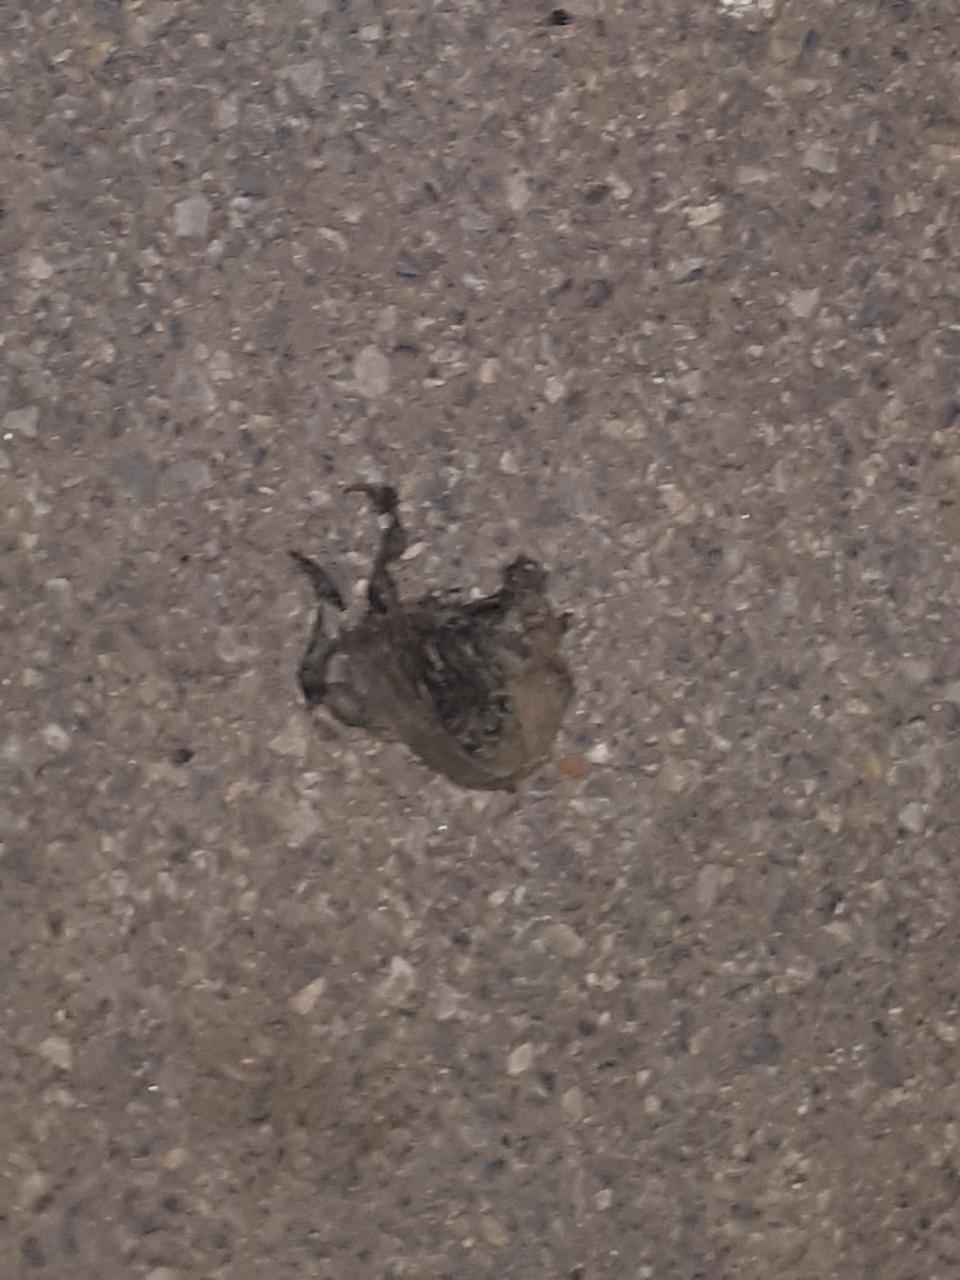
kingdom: Animalia
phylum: Chordata
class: Amphibia
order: Anura
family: Bufonidae
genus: Bufotes
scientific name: Bufotes viridis
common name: European green toad
